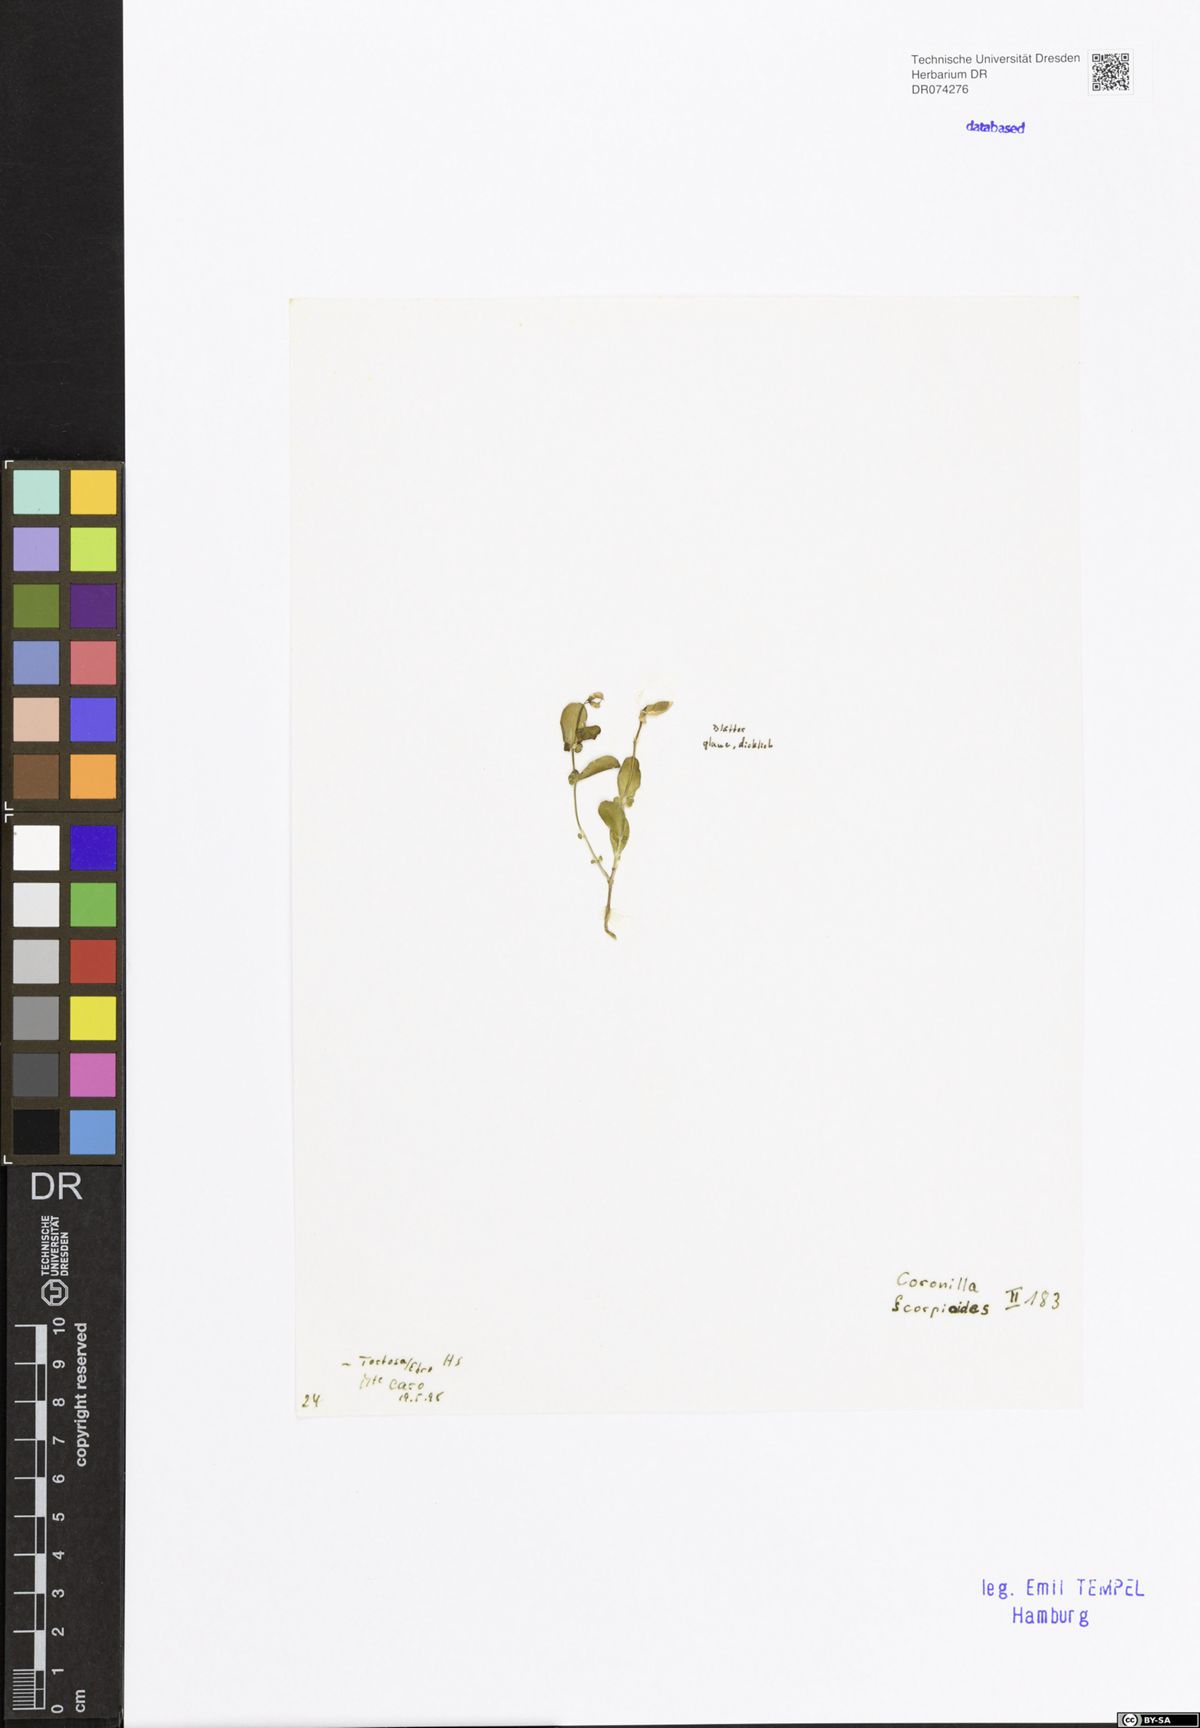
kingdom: Plantae
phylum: Tracheophyta
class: Magnoliopsida
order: Fabales
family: Fabaceae
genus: Coronilla
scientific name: Coronilla scorpioides
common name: Annual scorpion-vetch
